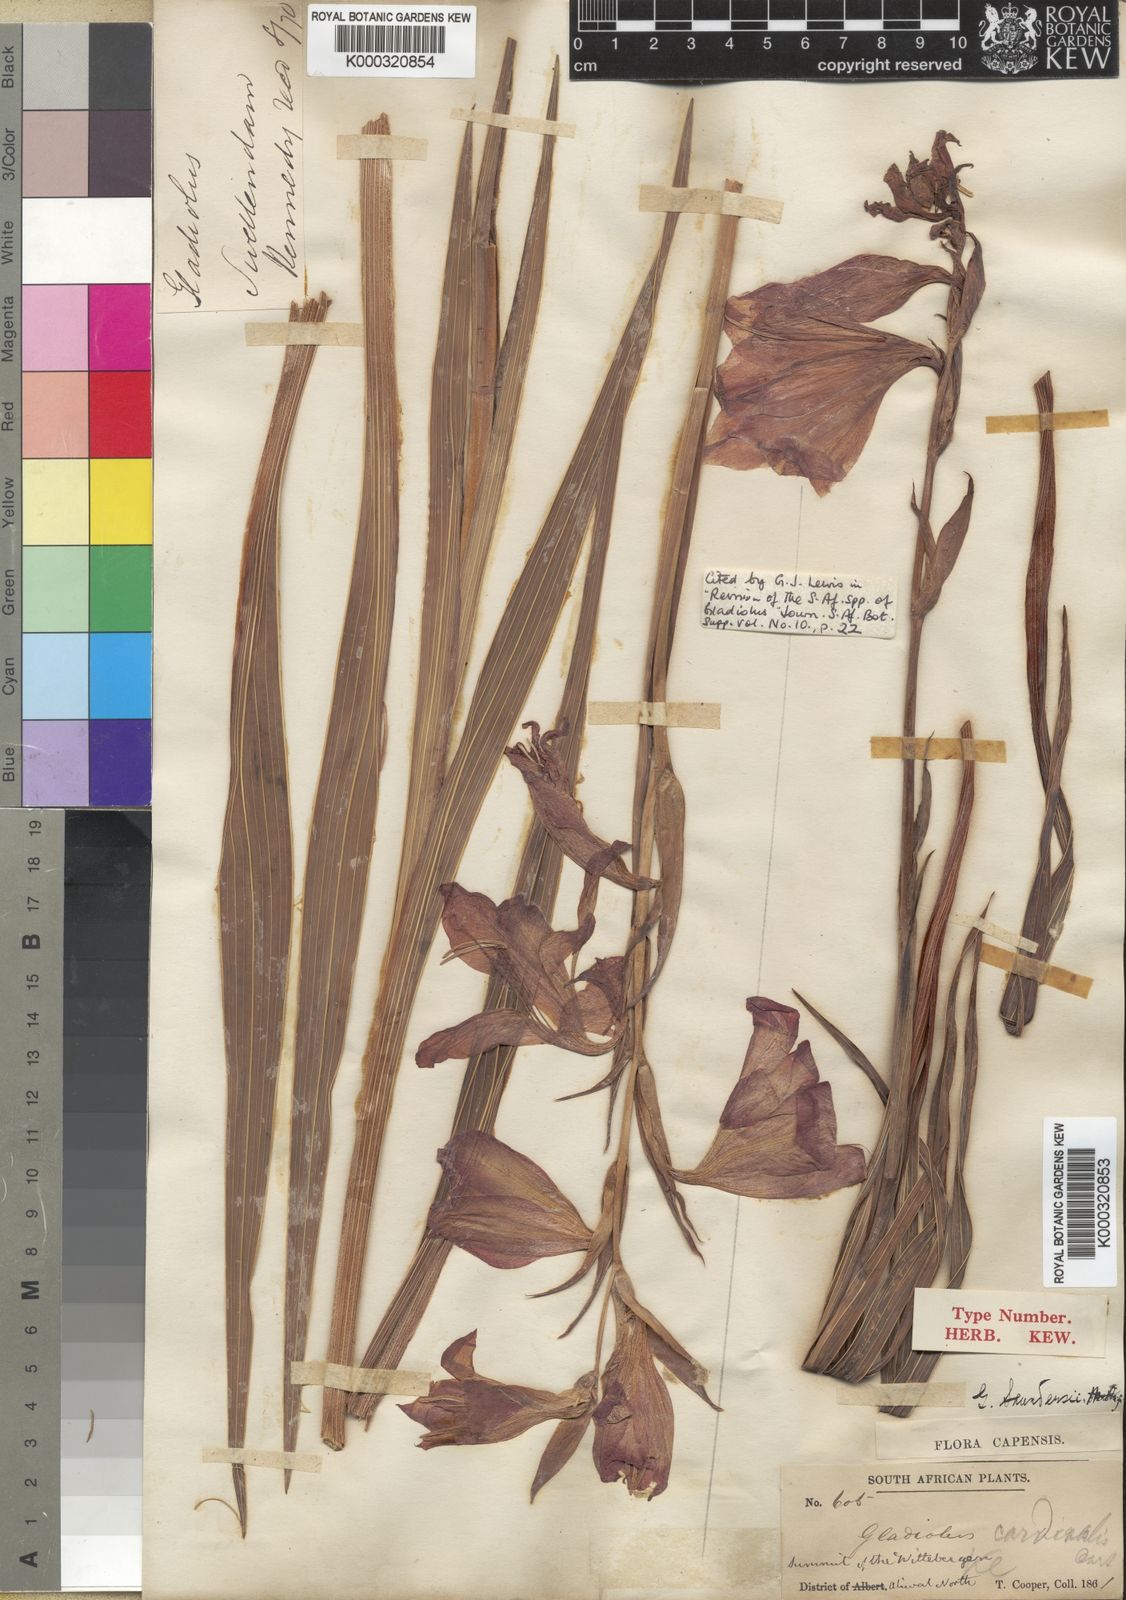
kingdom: Plantae
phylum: Tracheophyta
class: Liliopsida
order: Asparagales
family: Iridaceae
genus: Gladiolus
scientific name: Gladiolus saundersii
